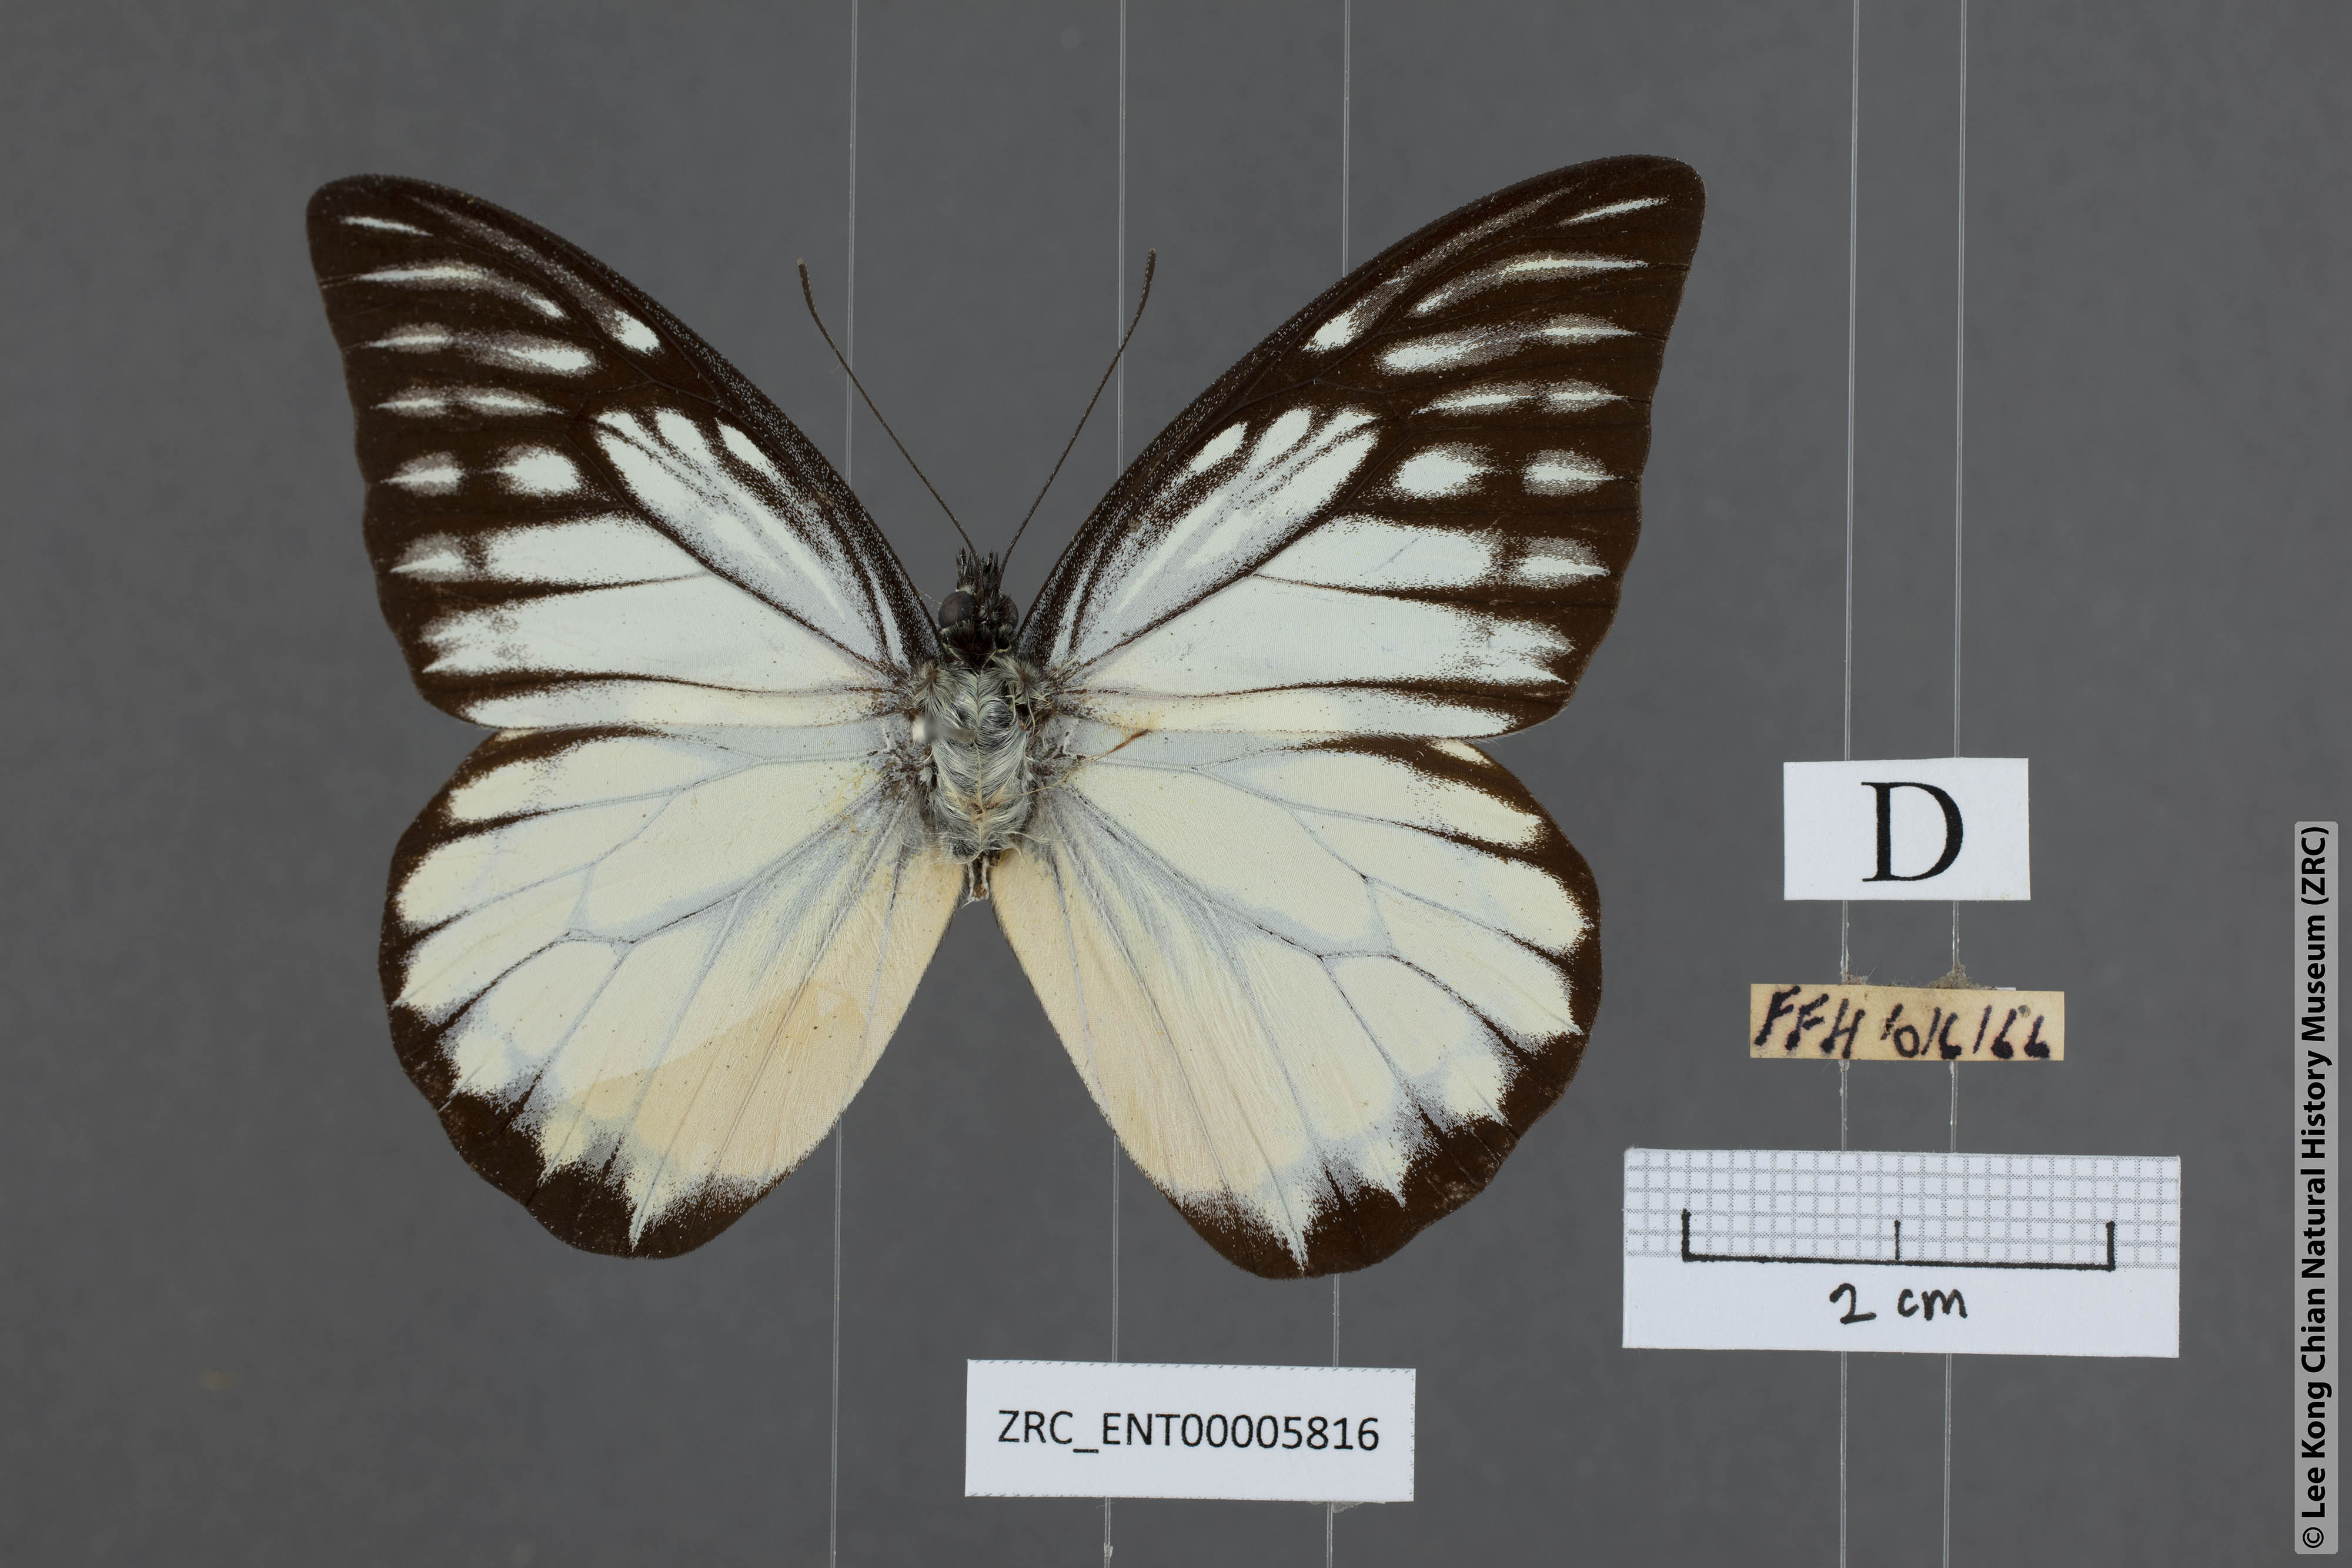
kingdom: Animalia
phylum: Arthropoda
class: Insecta
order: Lepidoptera
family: Pieridae
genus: Prioneris
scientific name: Prioneris thestylis
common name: Spotted sawtooth
